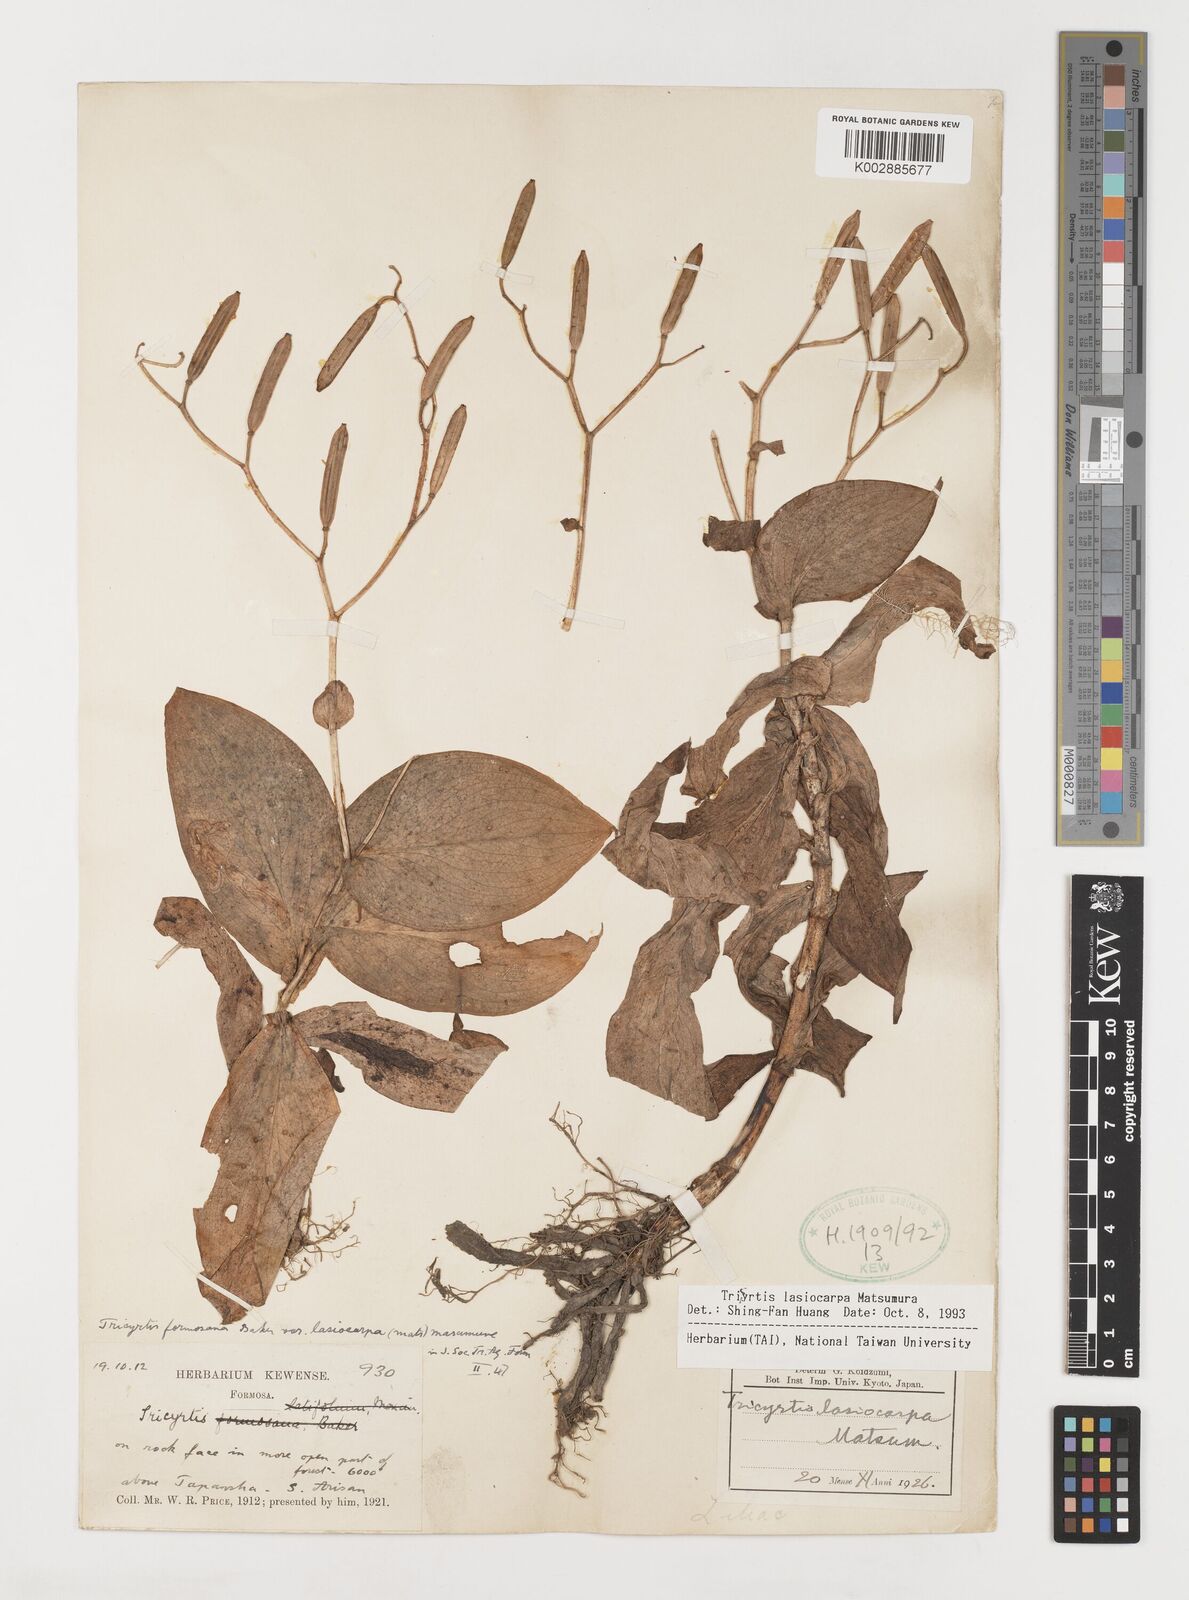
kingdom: Plantae
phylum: Tracheophyta
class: Liliopsida
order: Liliales
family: Liliaceae
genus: Tricyrtis
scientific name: Tricyrtis lasiocarpa
